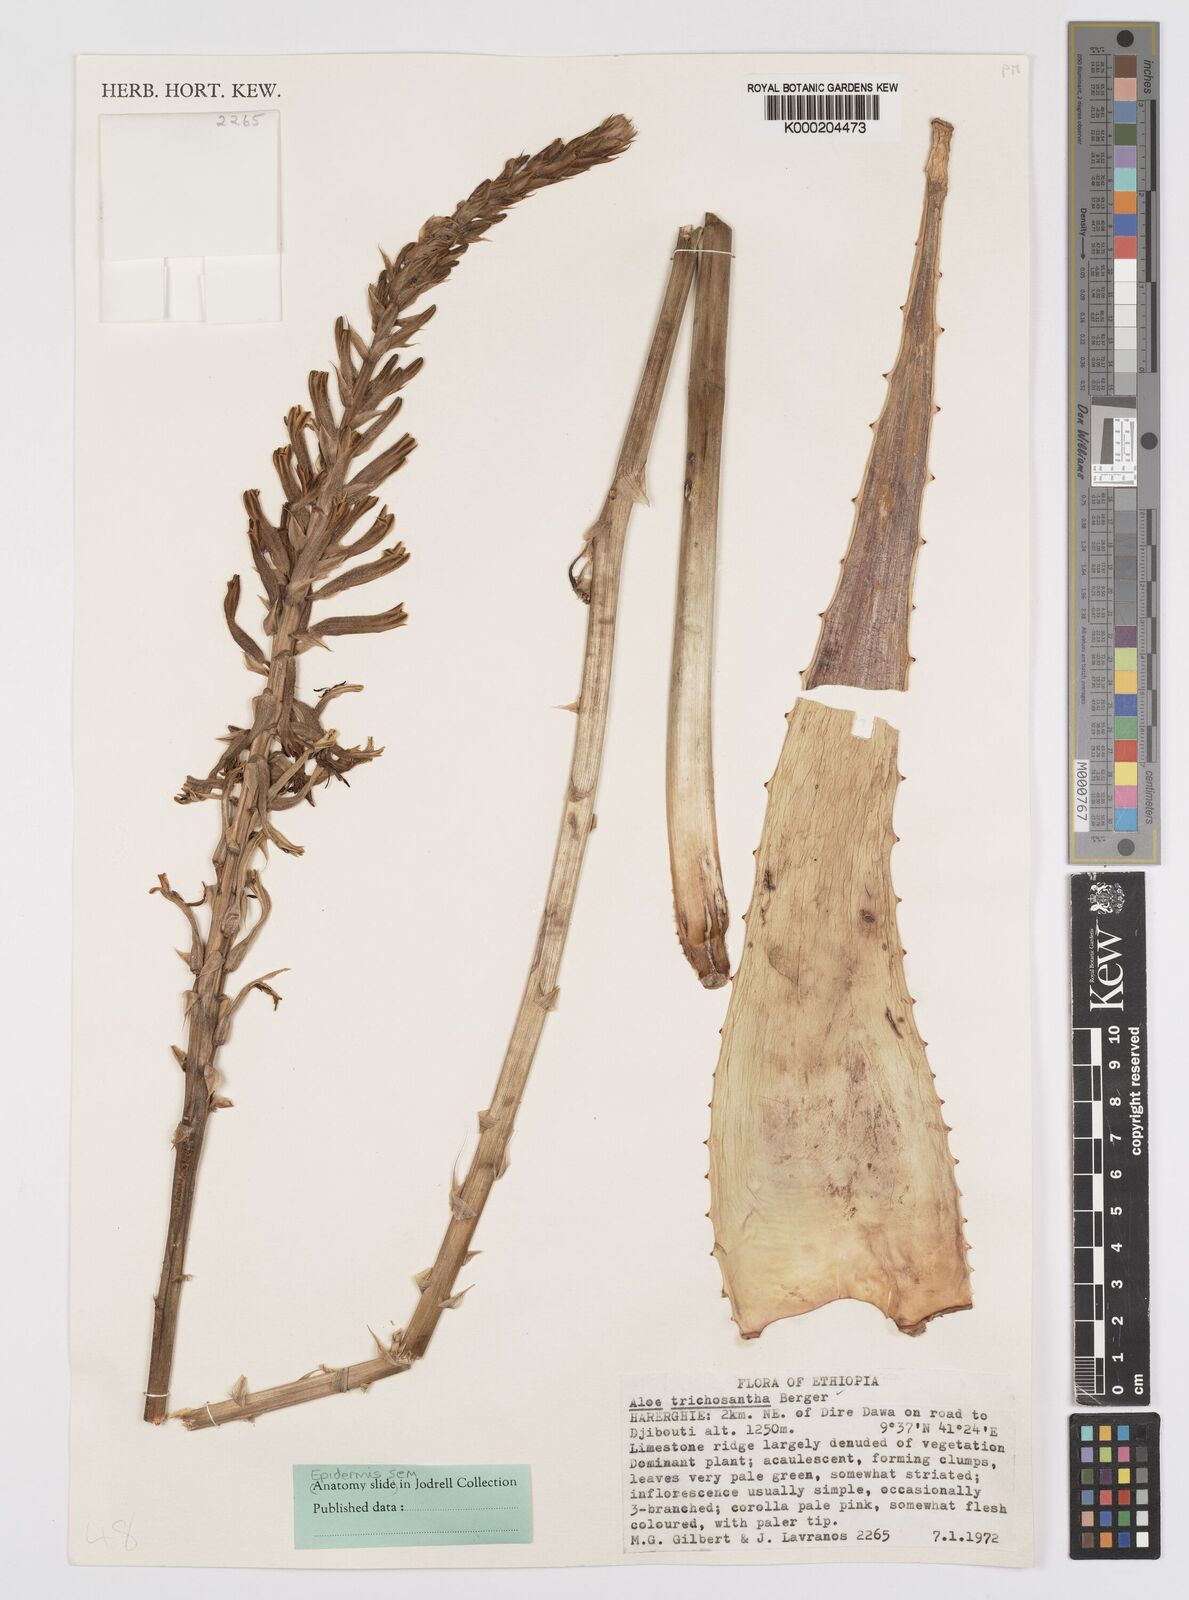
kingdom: Plantae
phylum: Tracheophyta
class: Liliopsida
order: Asparagales
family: Asphodelaceae
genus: Aloe
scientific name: Aloe trichosantha
